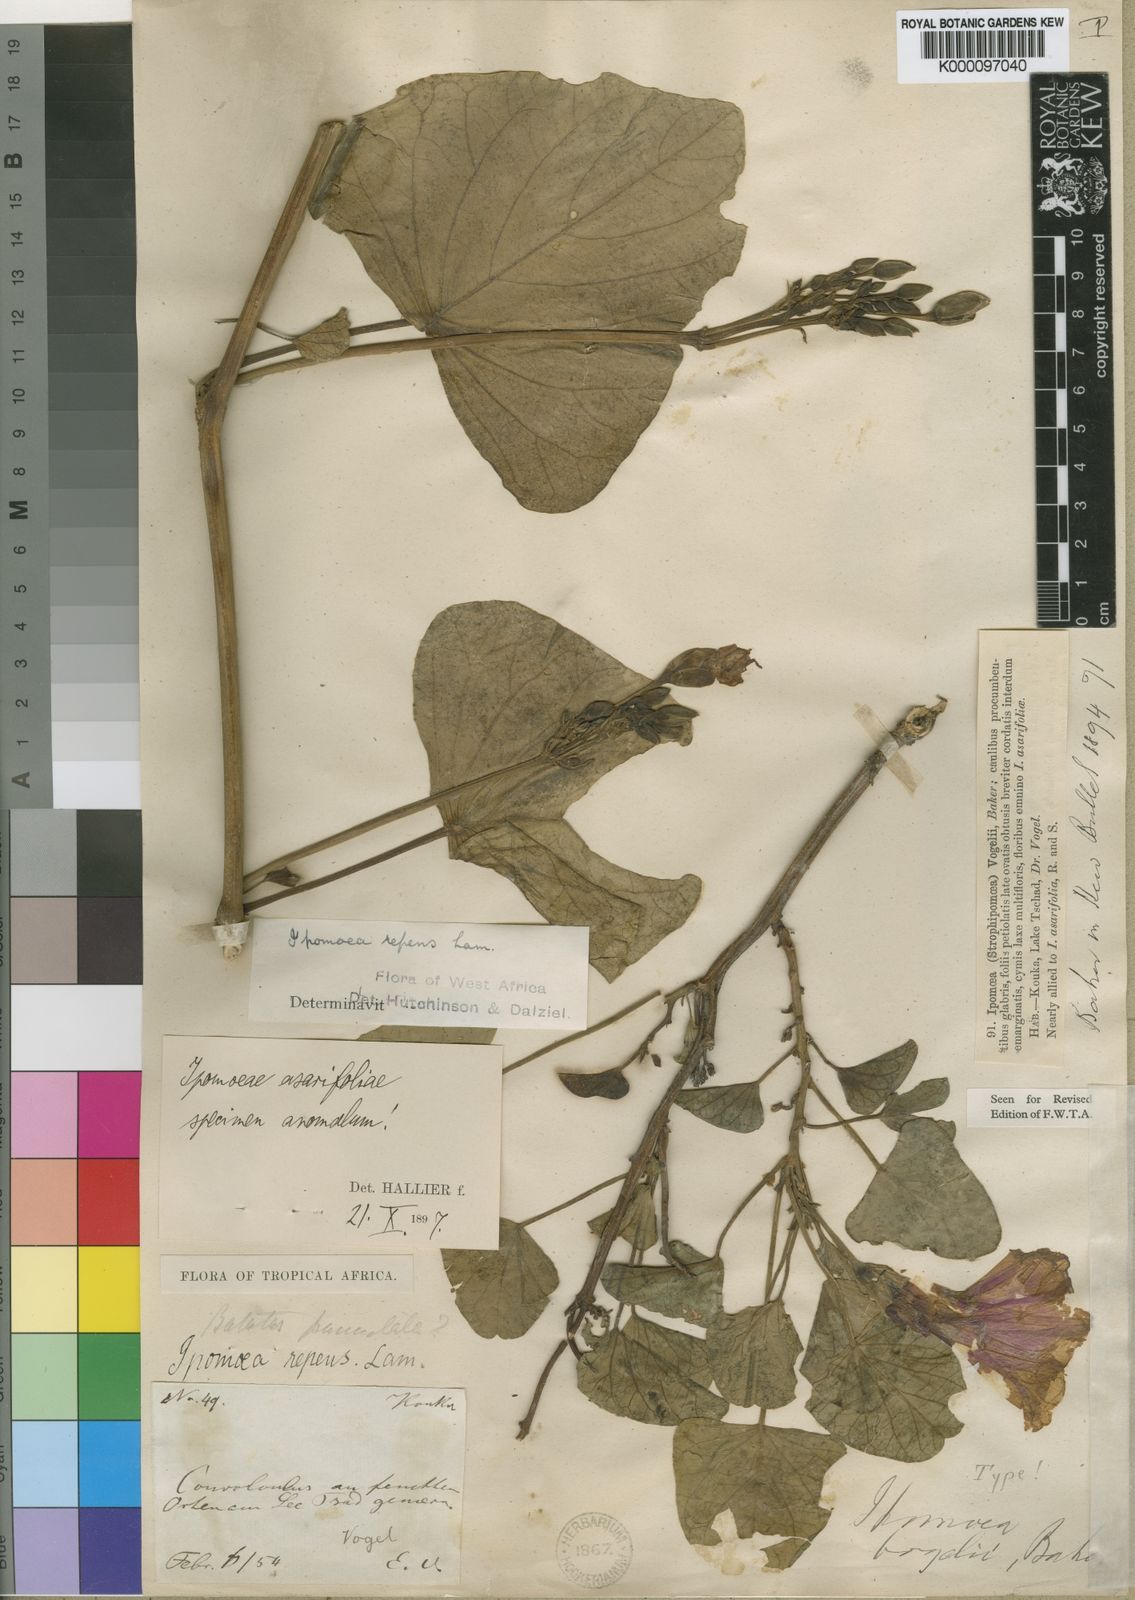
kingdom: Plantae
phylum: Tracheophyta
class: Magnoliopsida
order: Solanales
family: Convolvulaceae
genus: Ipomoea
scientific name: Ipomoea asarifolia
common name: Ginger-leaf morning-glory
